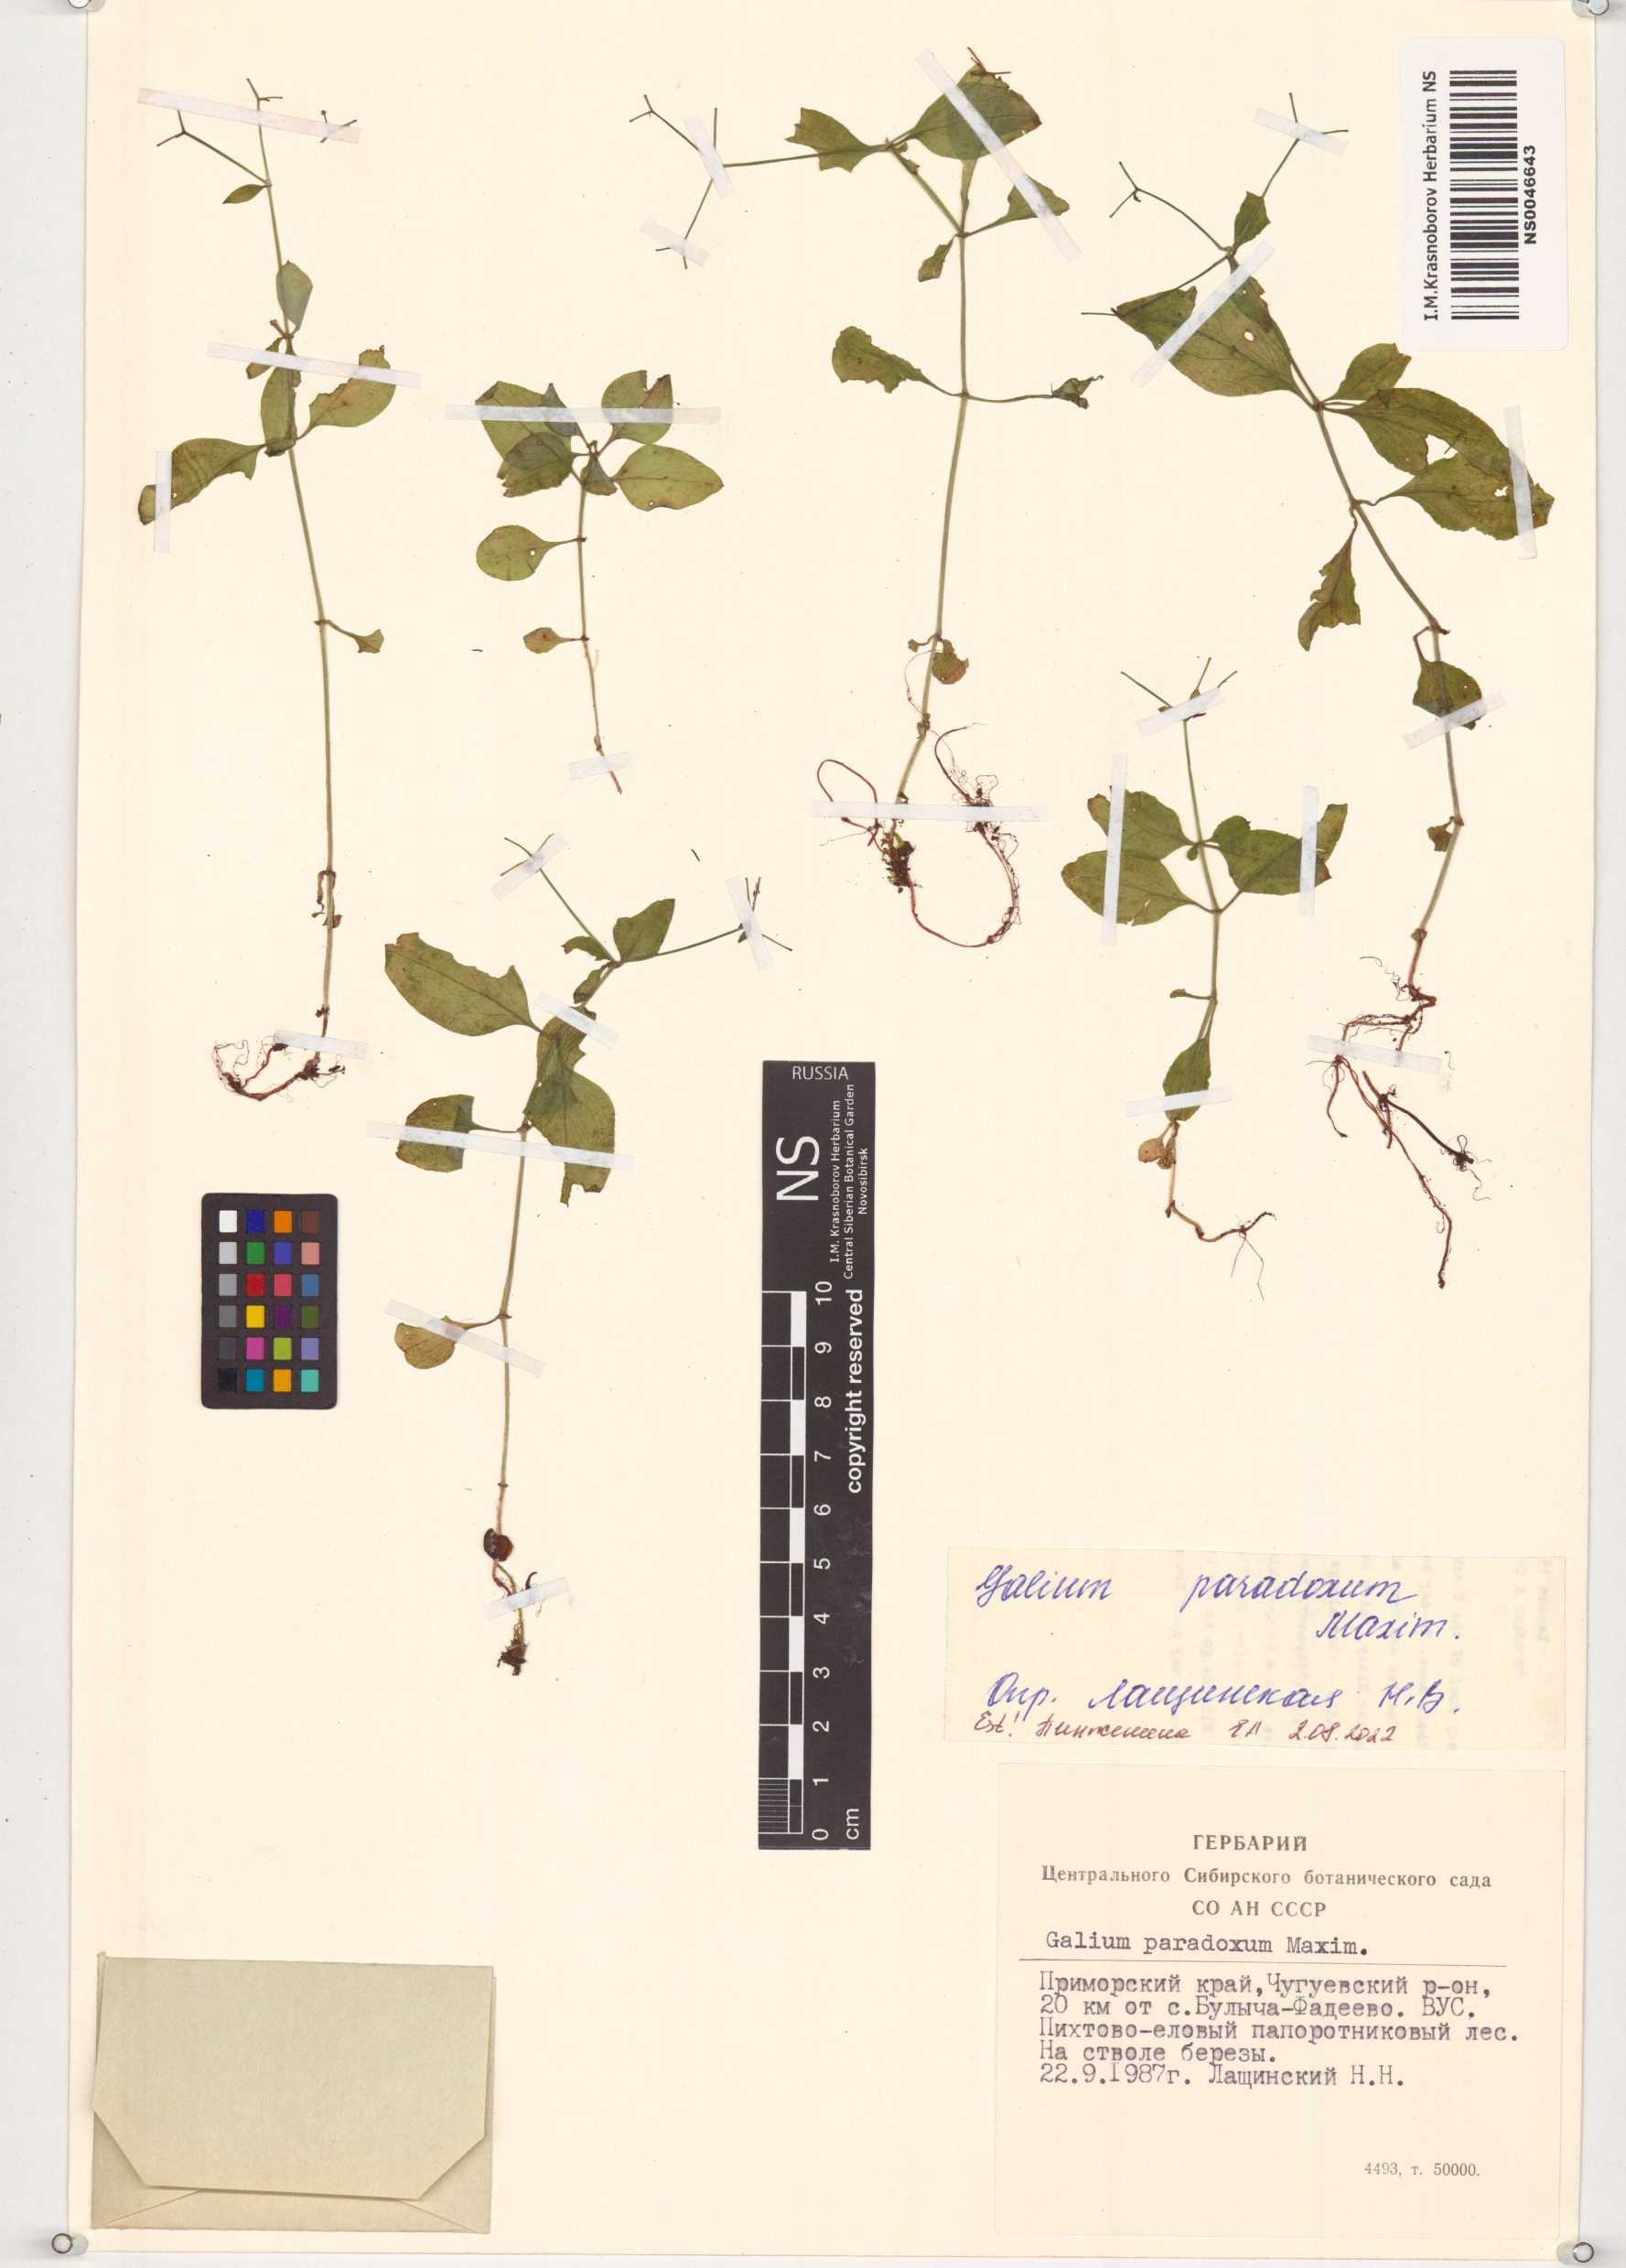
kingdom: Plantae
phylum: Tracheophyta
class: Magnoliopsida
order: Gentianales
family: Rubiaceae
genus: Pseudogalium
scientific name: Pseudogalium paradoxum
